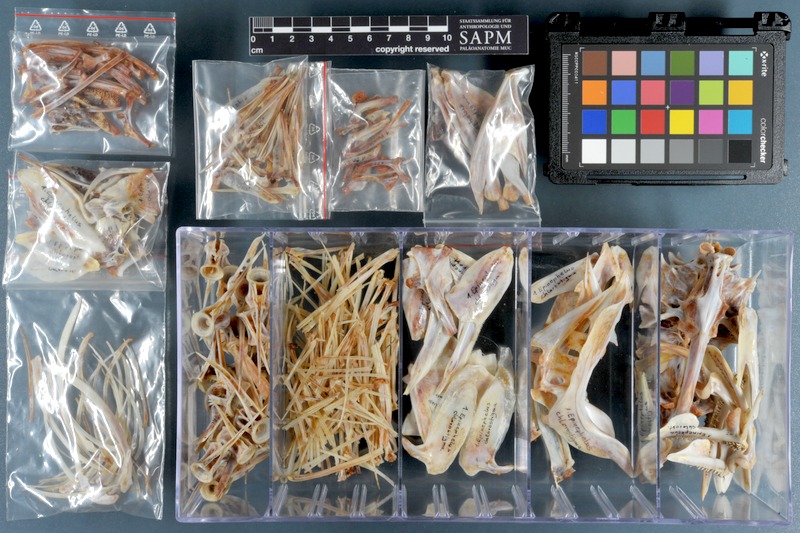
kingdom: Animalia
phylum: Chordata
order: Perciformes
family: Serranidae
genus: Epinephelus
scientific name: Epinephelus chlorostigma
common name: Brownspotted grouper
